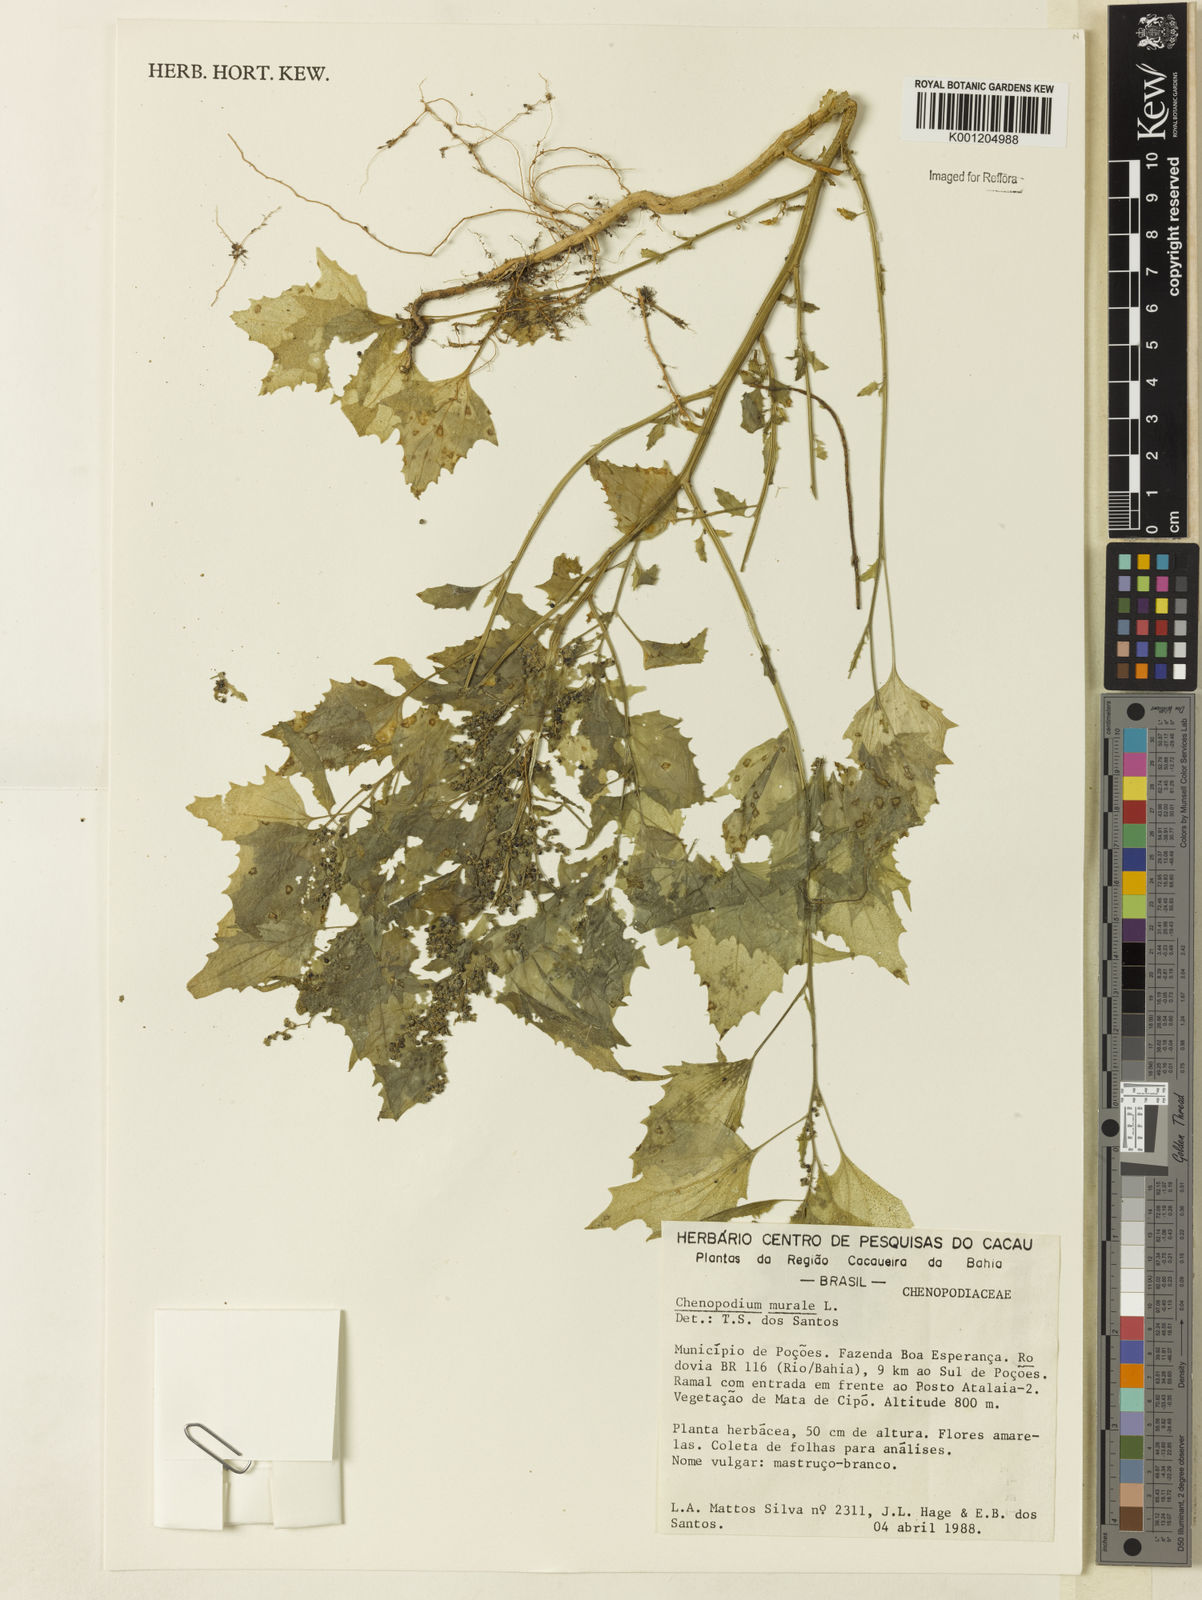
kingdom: Plantae
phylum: Tracheophyta
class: Magnoliopsida
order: Caryophyllales
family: Amaranthaceae
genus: Chenopodiastrum
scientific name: Chenopodiastrum murale
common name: Sowbane
